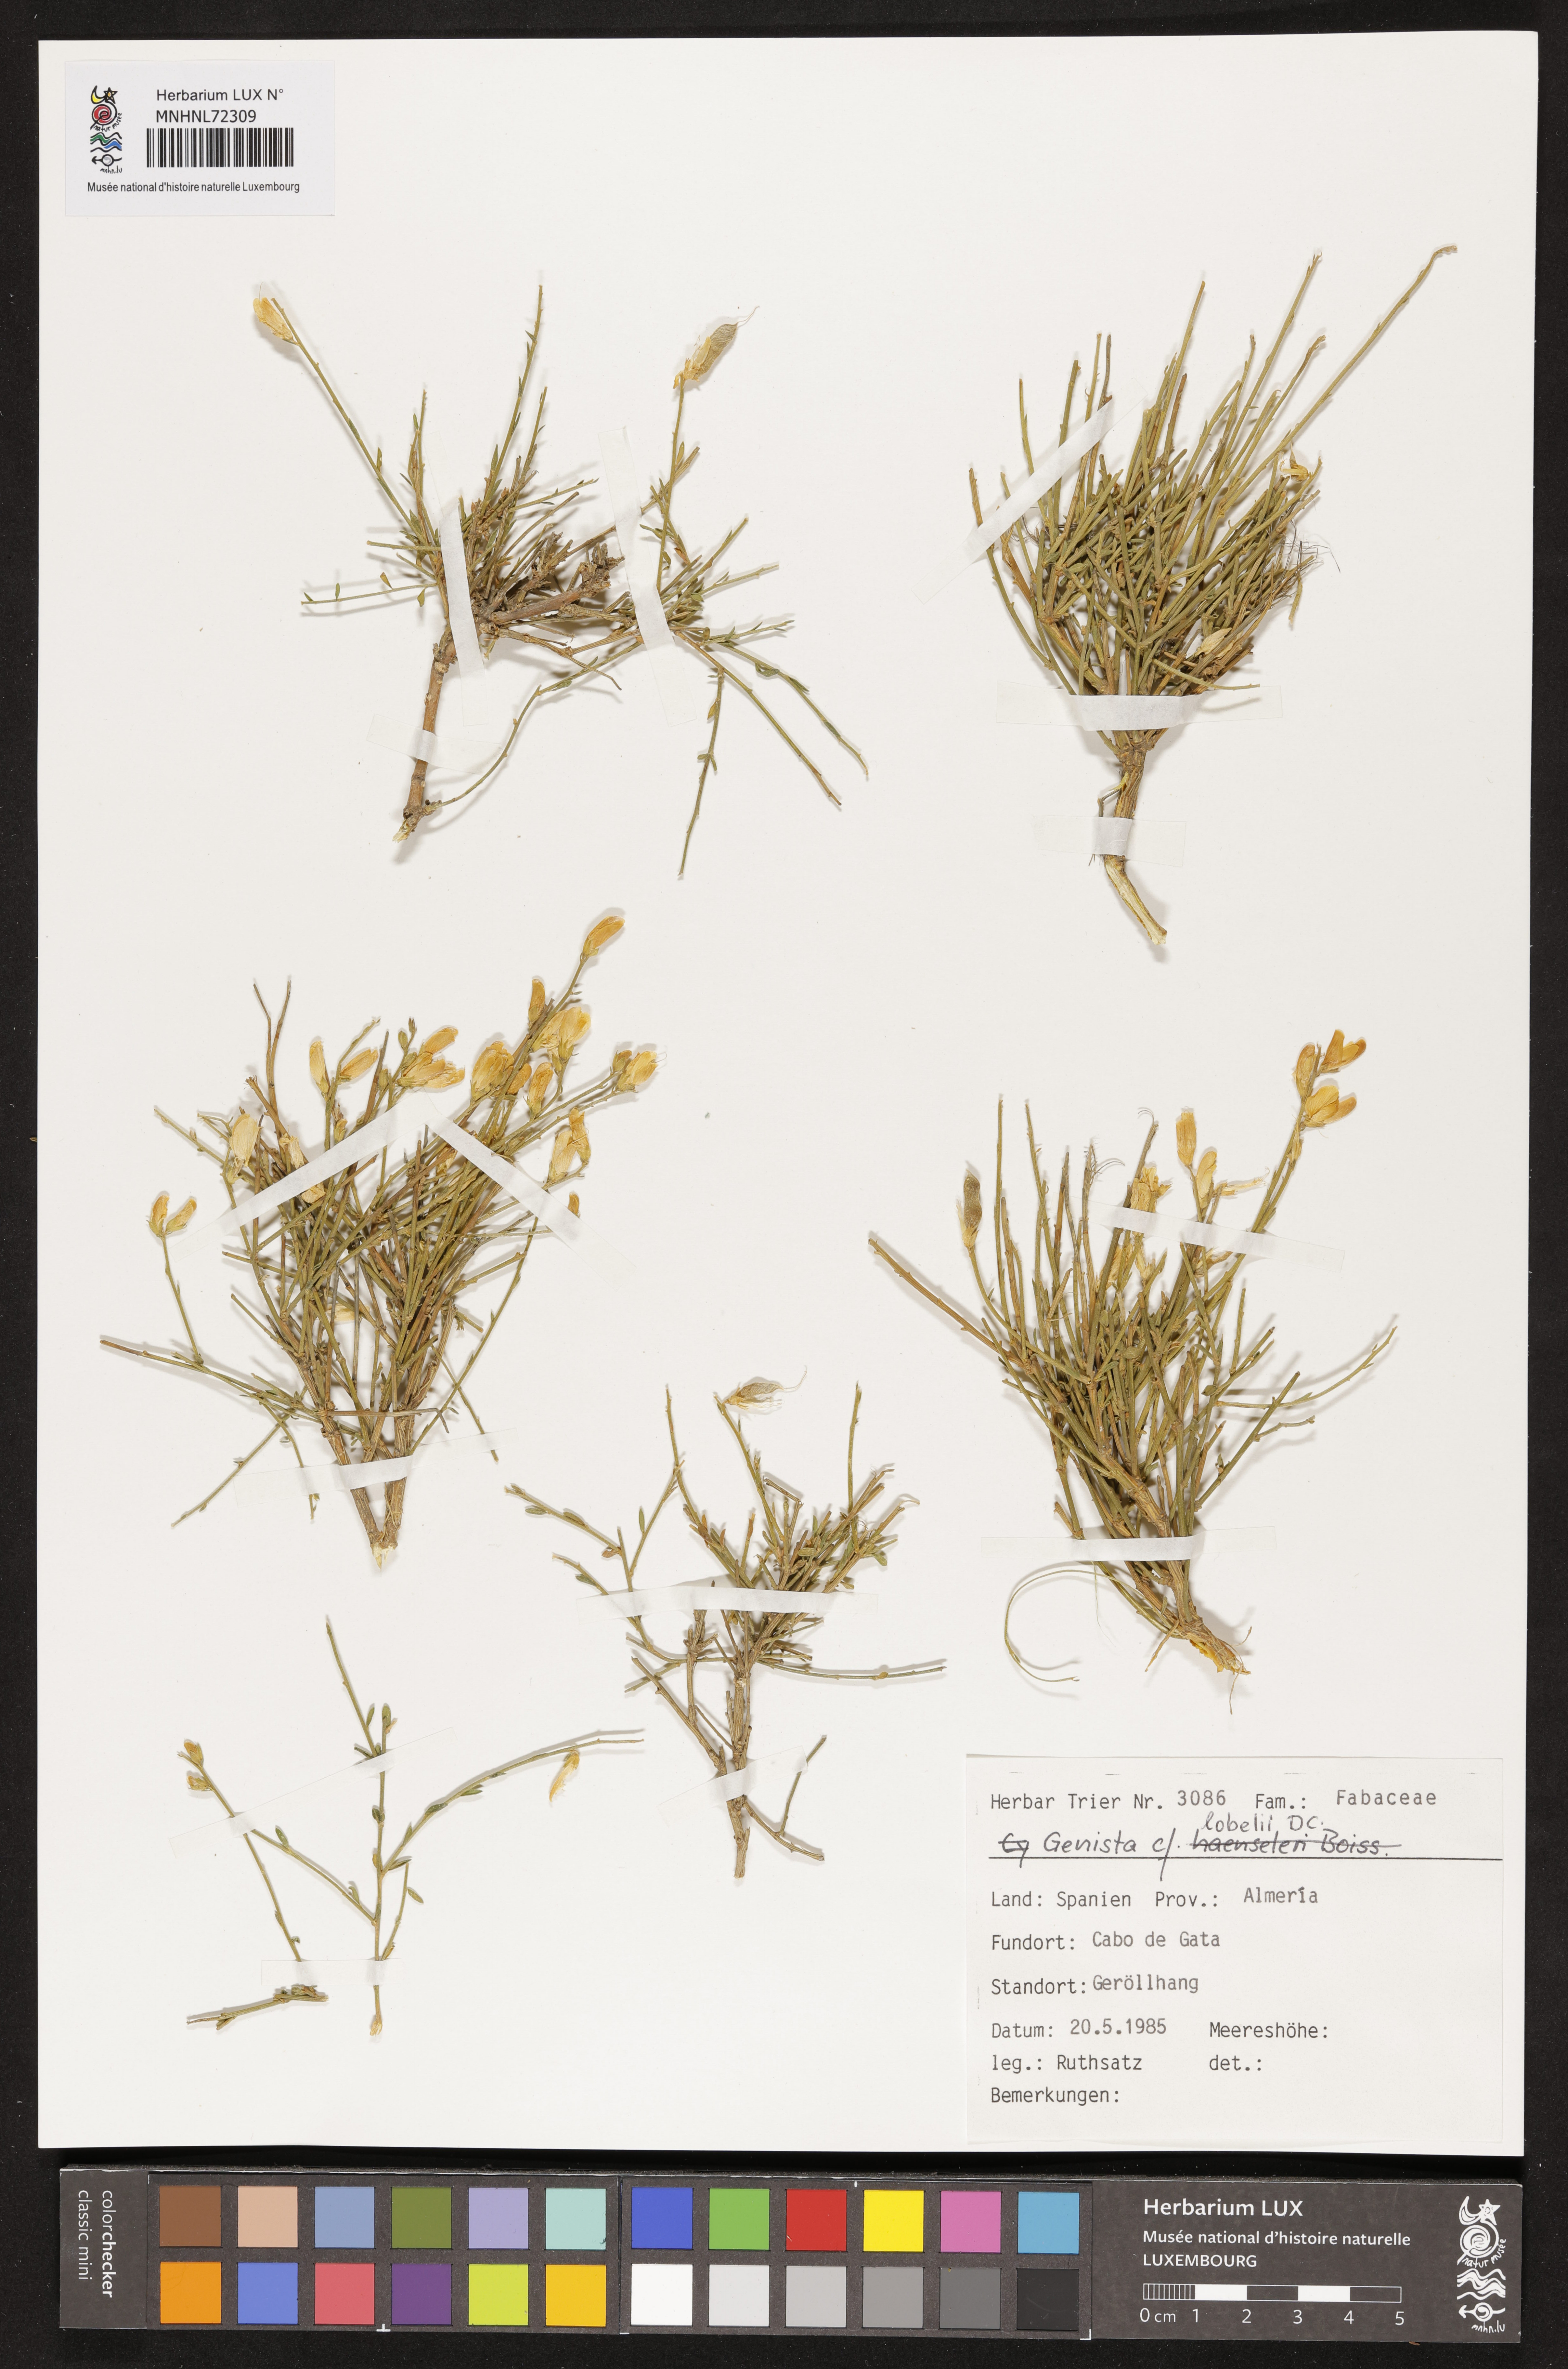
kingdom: Plantae
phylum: Tracheophyta
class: Magnoliopsida
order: Fabales
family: Fabaceae
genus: Genista
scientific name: Genista lobelii
